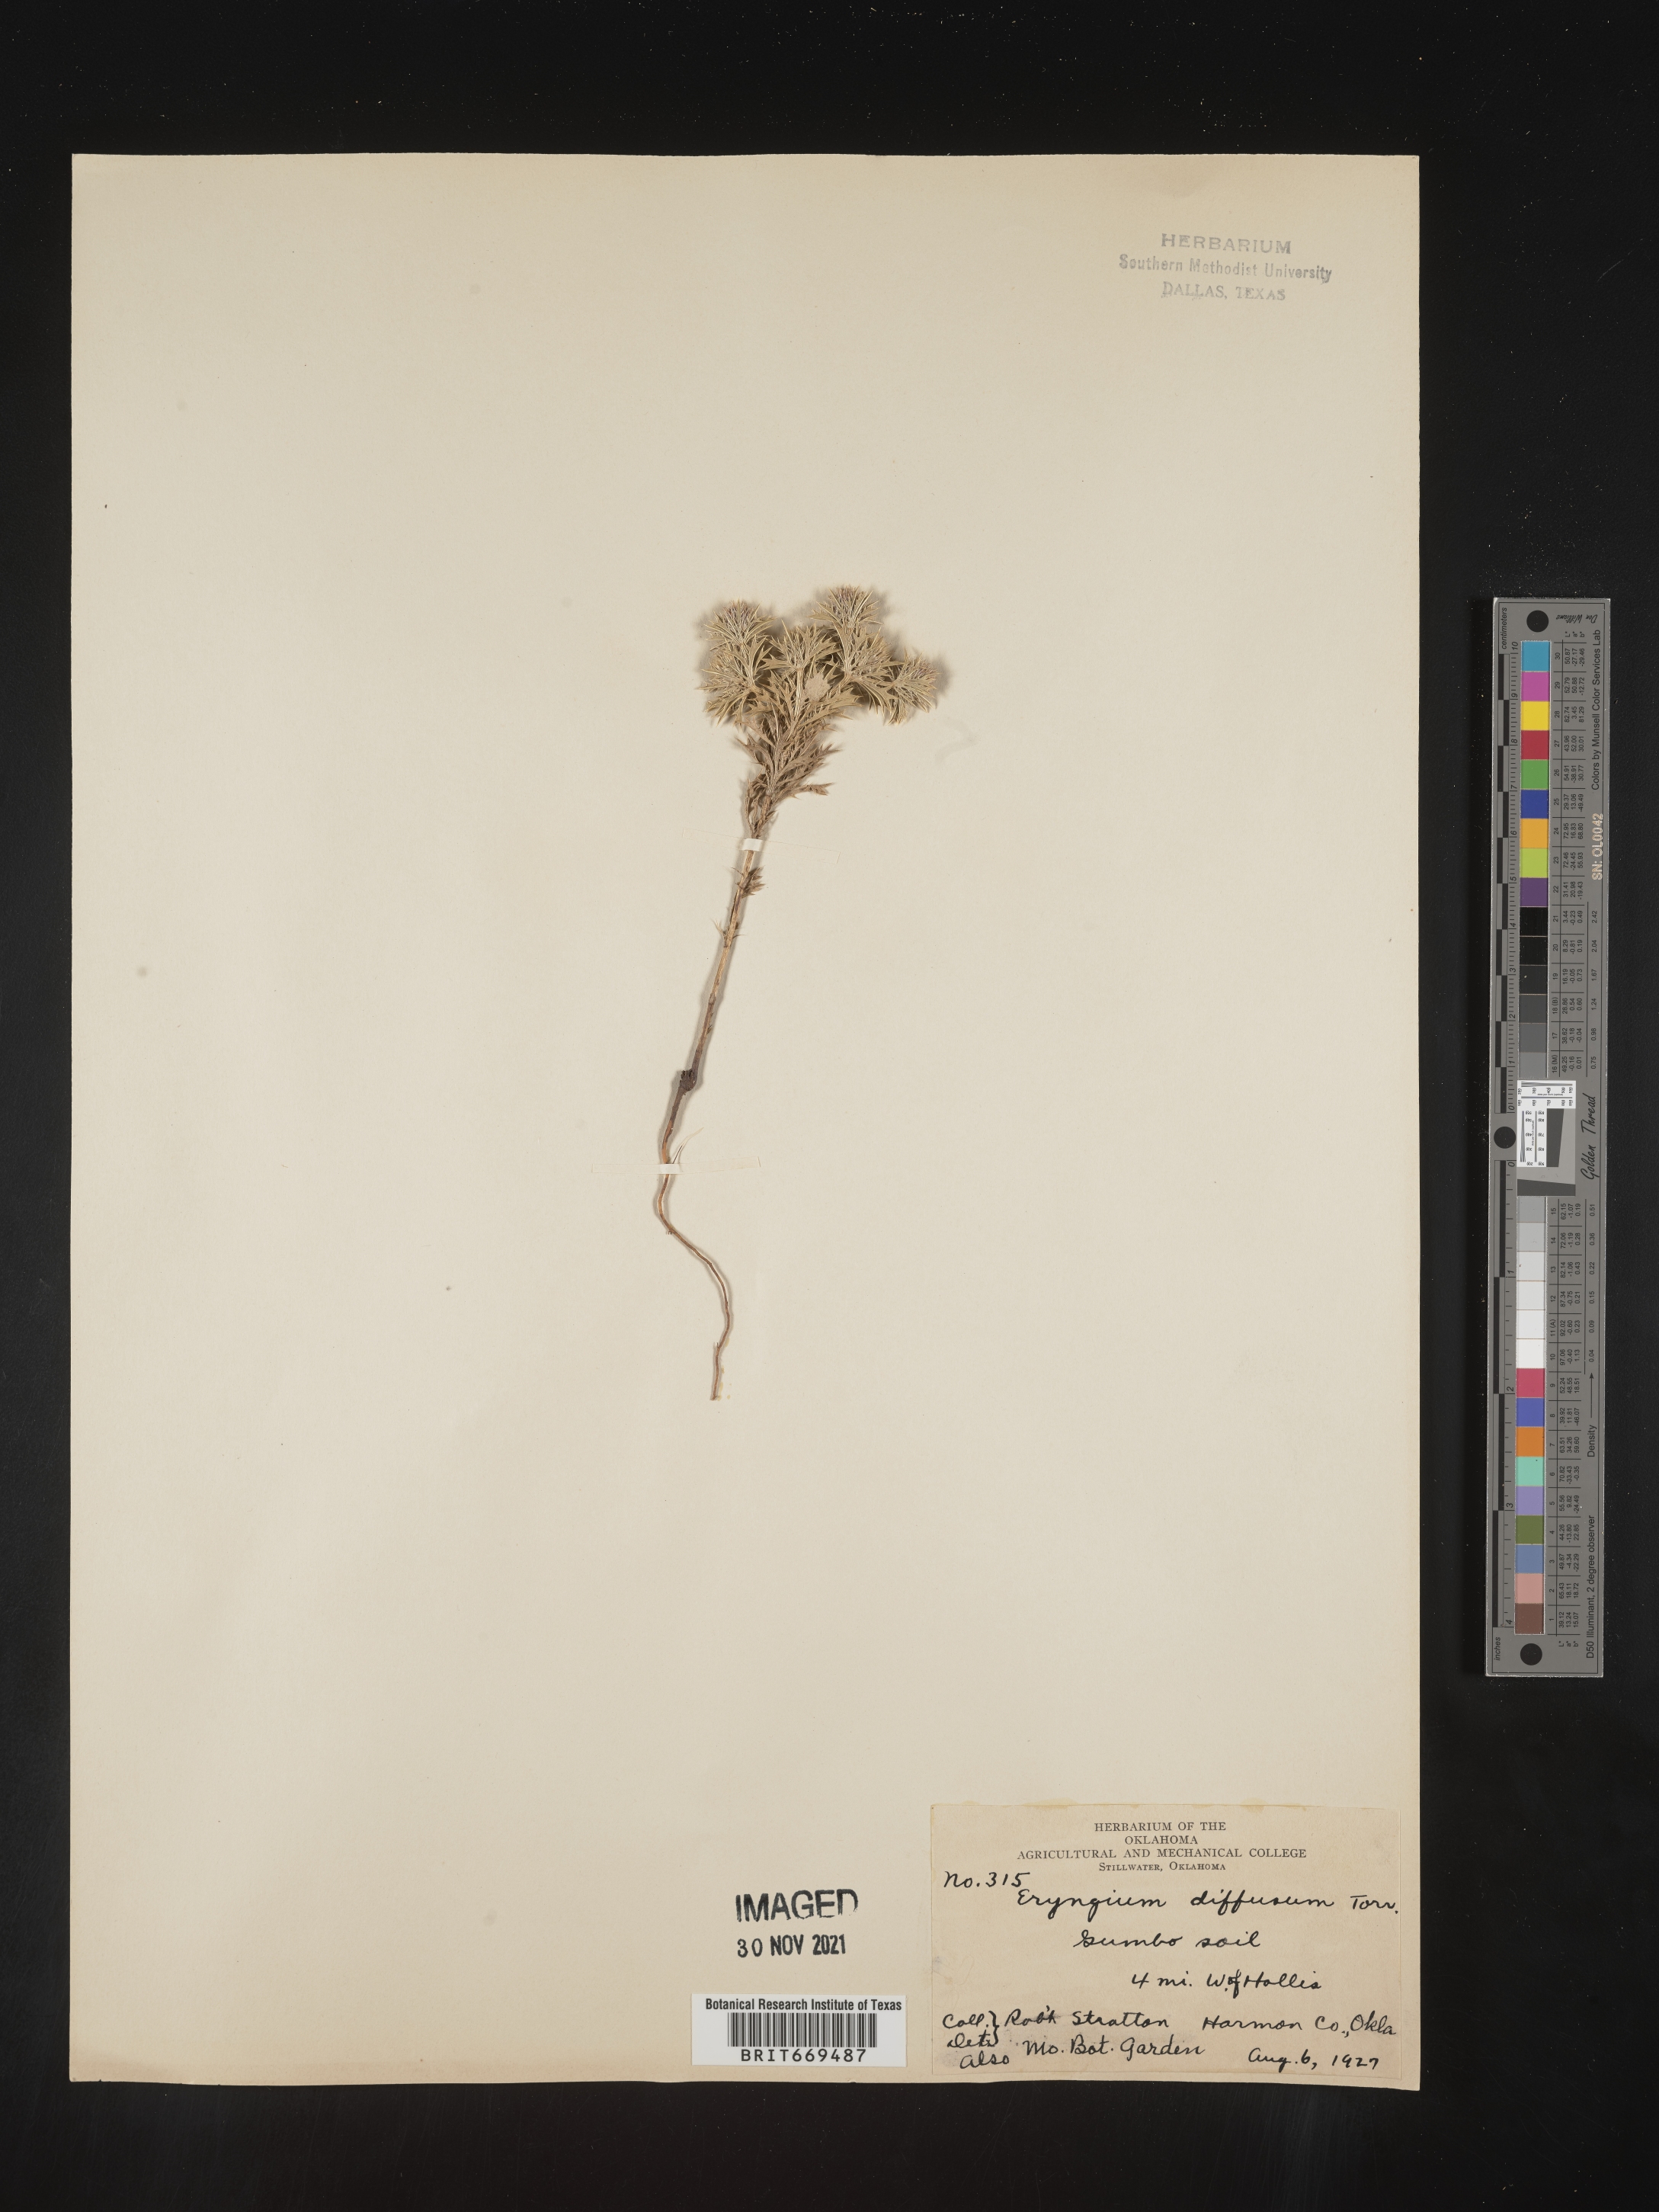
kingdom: Plantae
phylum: Tracheophyta
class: Magnoliopsida
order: Apiales
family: Apiaceae
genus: Eryngium
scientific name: Eryngium
